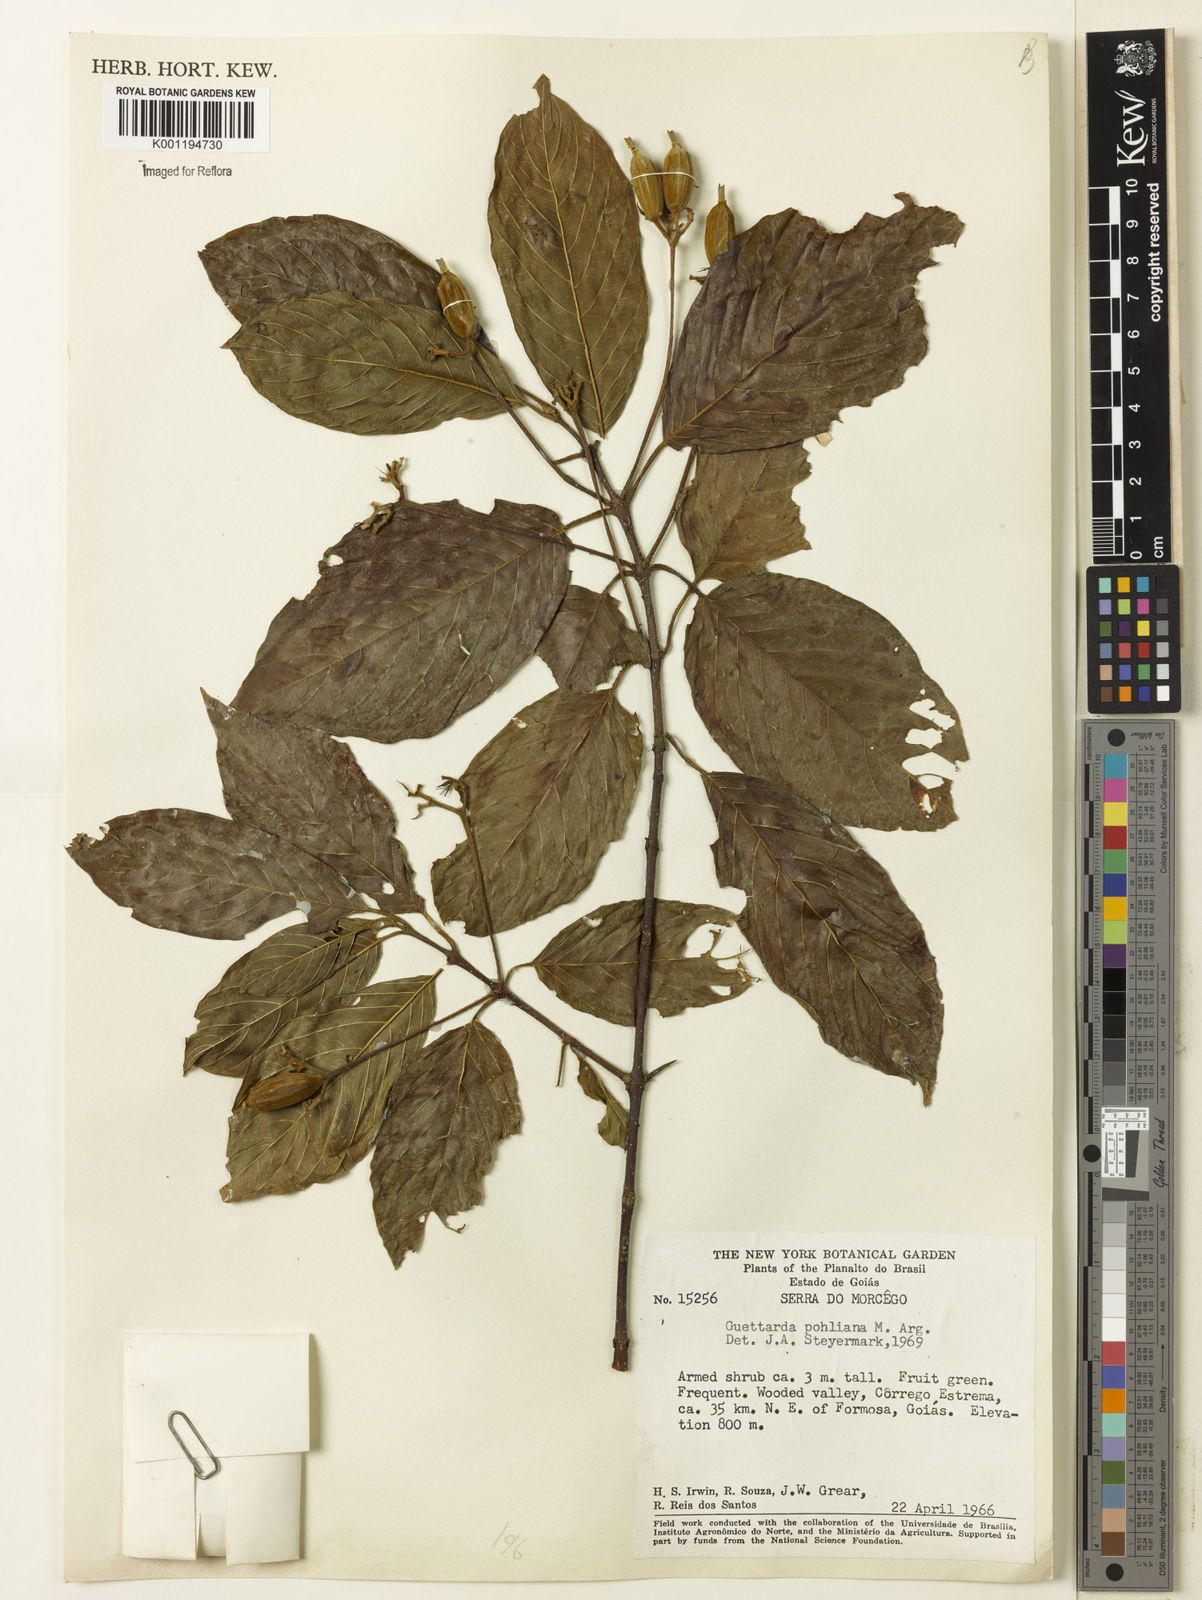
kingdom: Plantae
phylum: Tracheophyta
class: Magnoliopsida
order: Gentianales
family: Rubiaceae
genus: Guettarda
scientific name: Guettarda mattogrossensis
